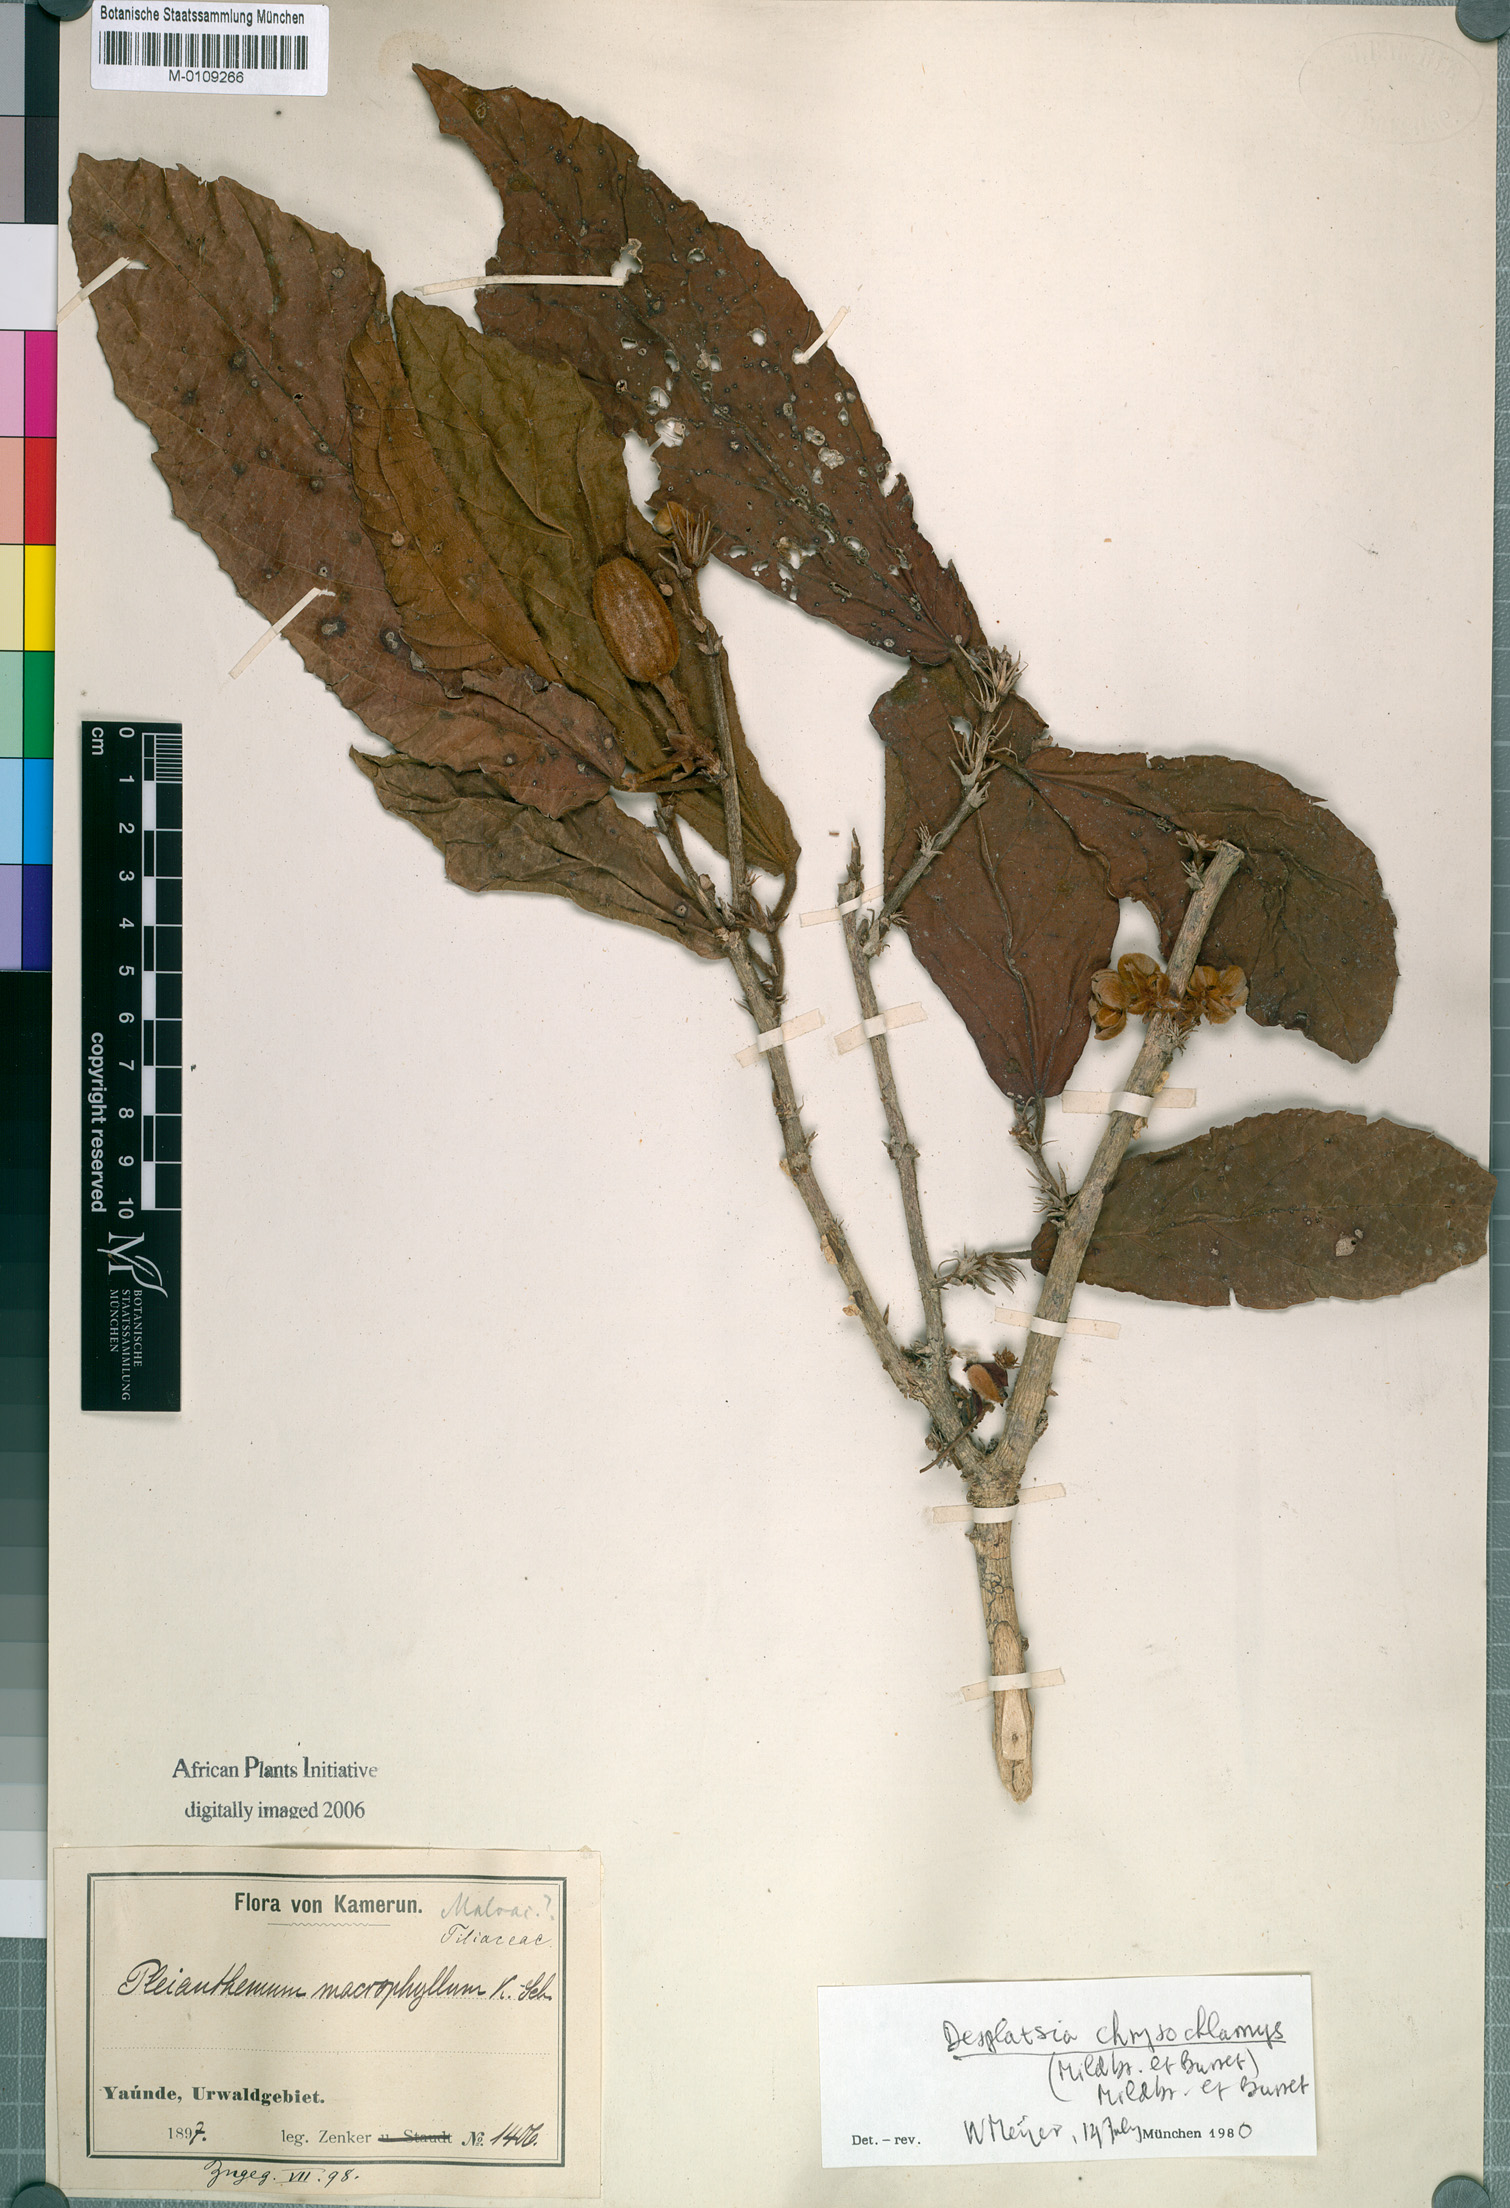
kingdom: Plantae
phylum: Tracheophyta
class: Magnoliopsida
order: Malvales
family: Malvaceae
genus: Desplatsia
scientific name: Desplatsia chrysochlamys
